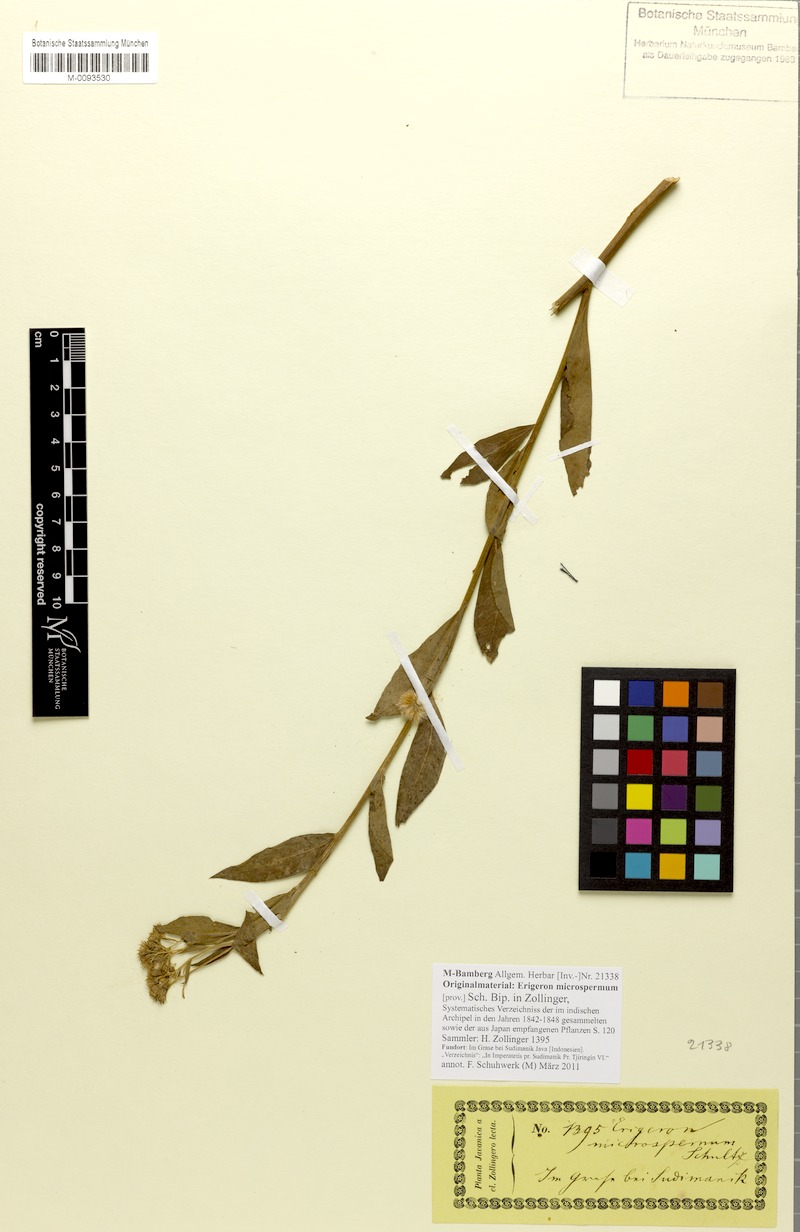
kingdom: Plantae
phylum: Tracheophyta
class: Magnoliopsida
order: Asterales
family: Asteraceae
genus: Erigeron
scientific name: Erigeron microspermus
